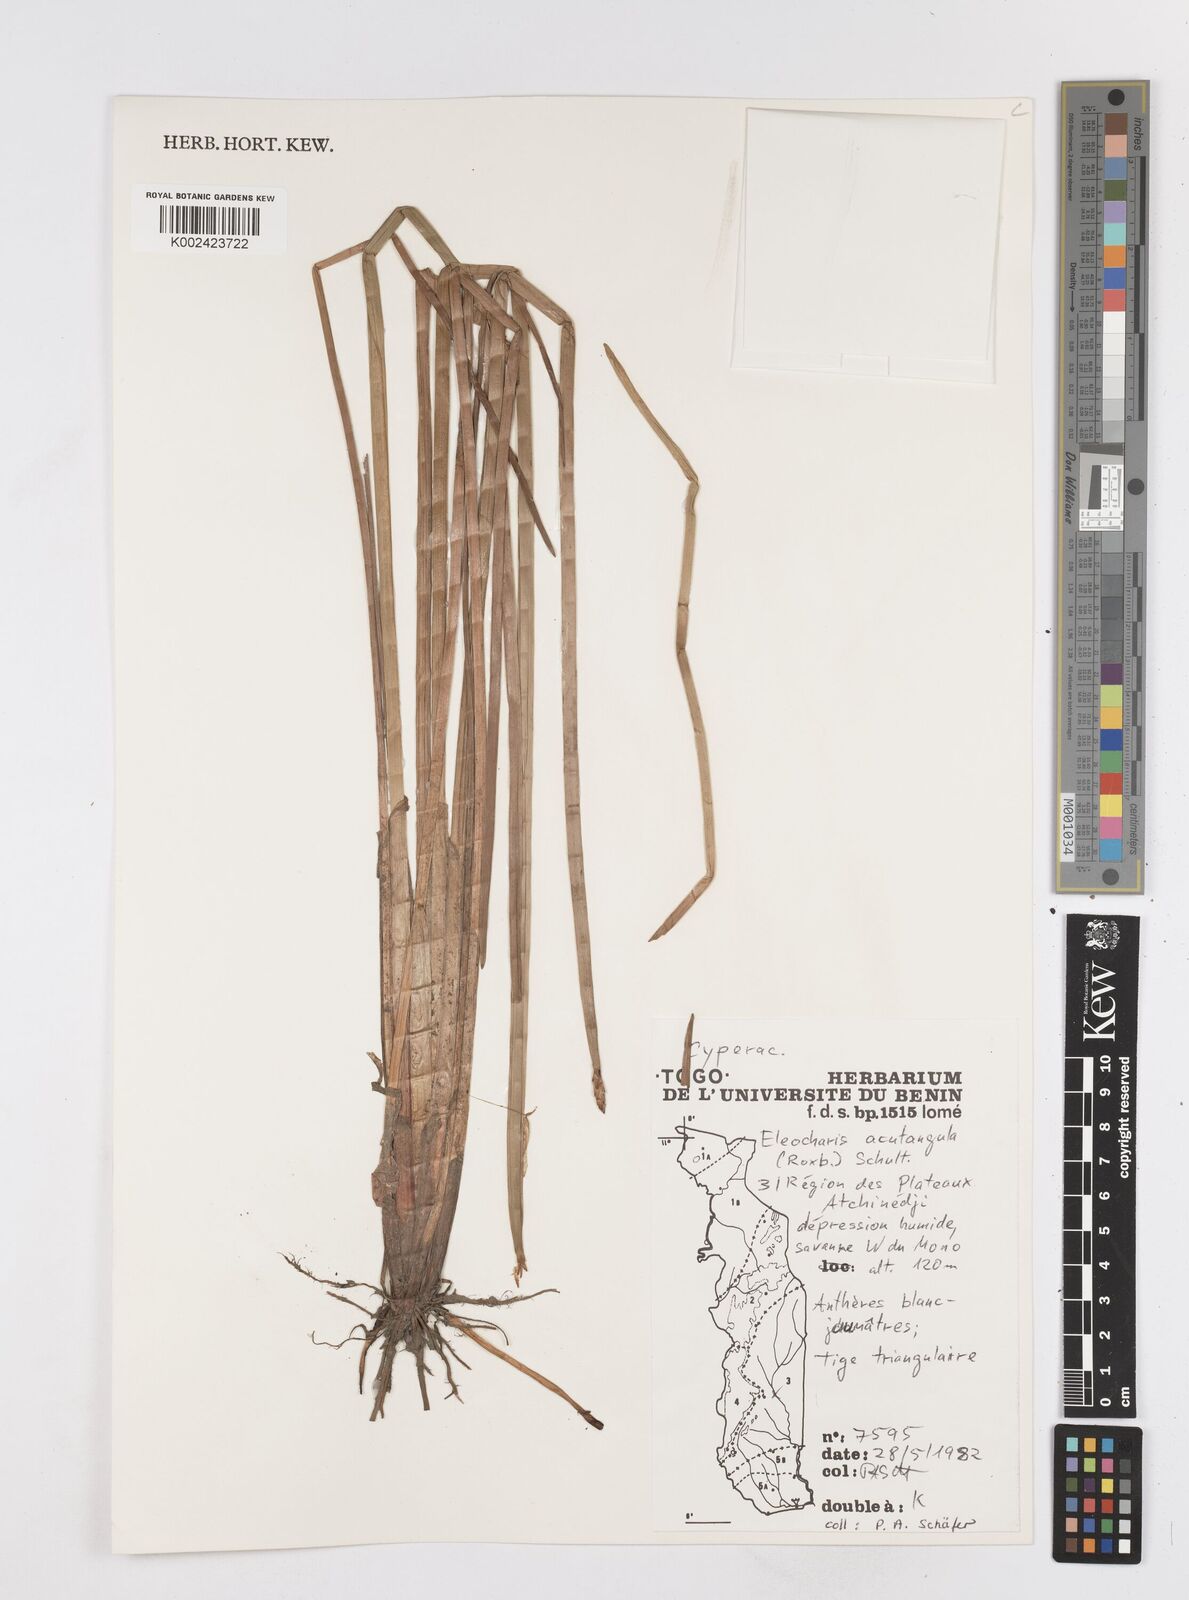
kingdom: Plantae
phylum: Tracheophyta
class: Liliopsida
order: Poales
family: Cyperaceae
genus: Eleocharis
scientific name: Eleocharis acutangula
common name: Acute spikerush
